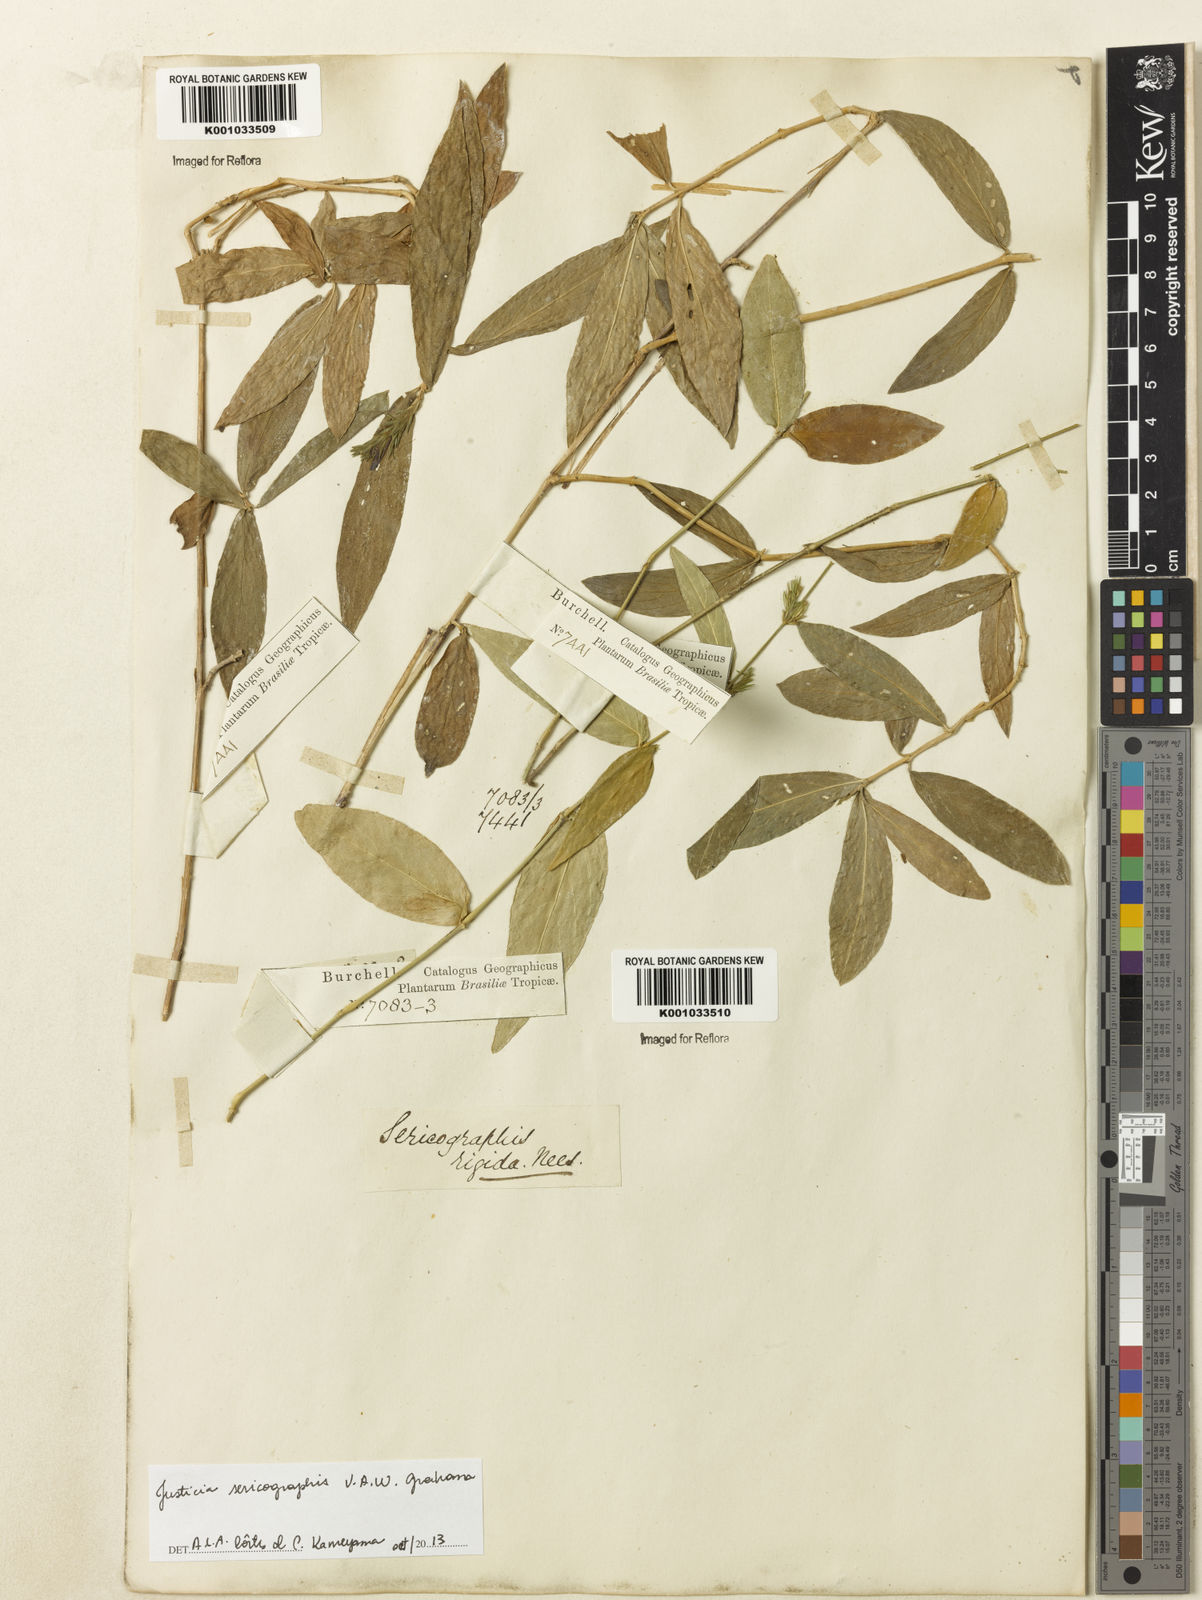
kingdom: Plantae
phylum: Tracheophyta
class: Magnoliopsida
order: Lamiales
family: Acanthaceae
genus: Dianthera
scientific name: Dianthera rigida
